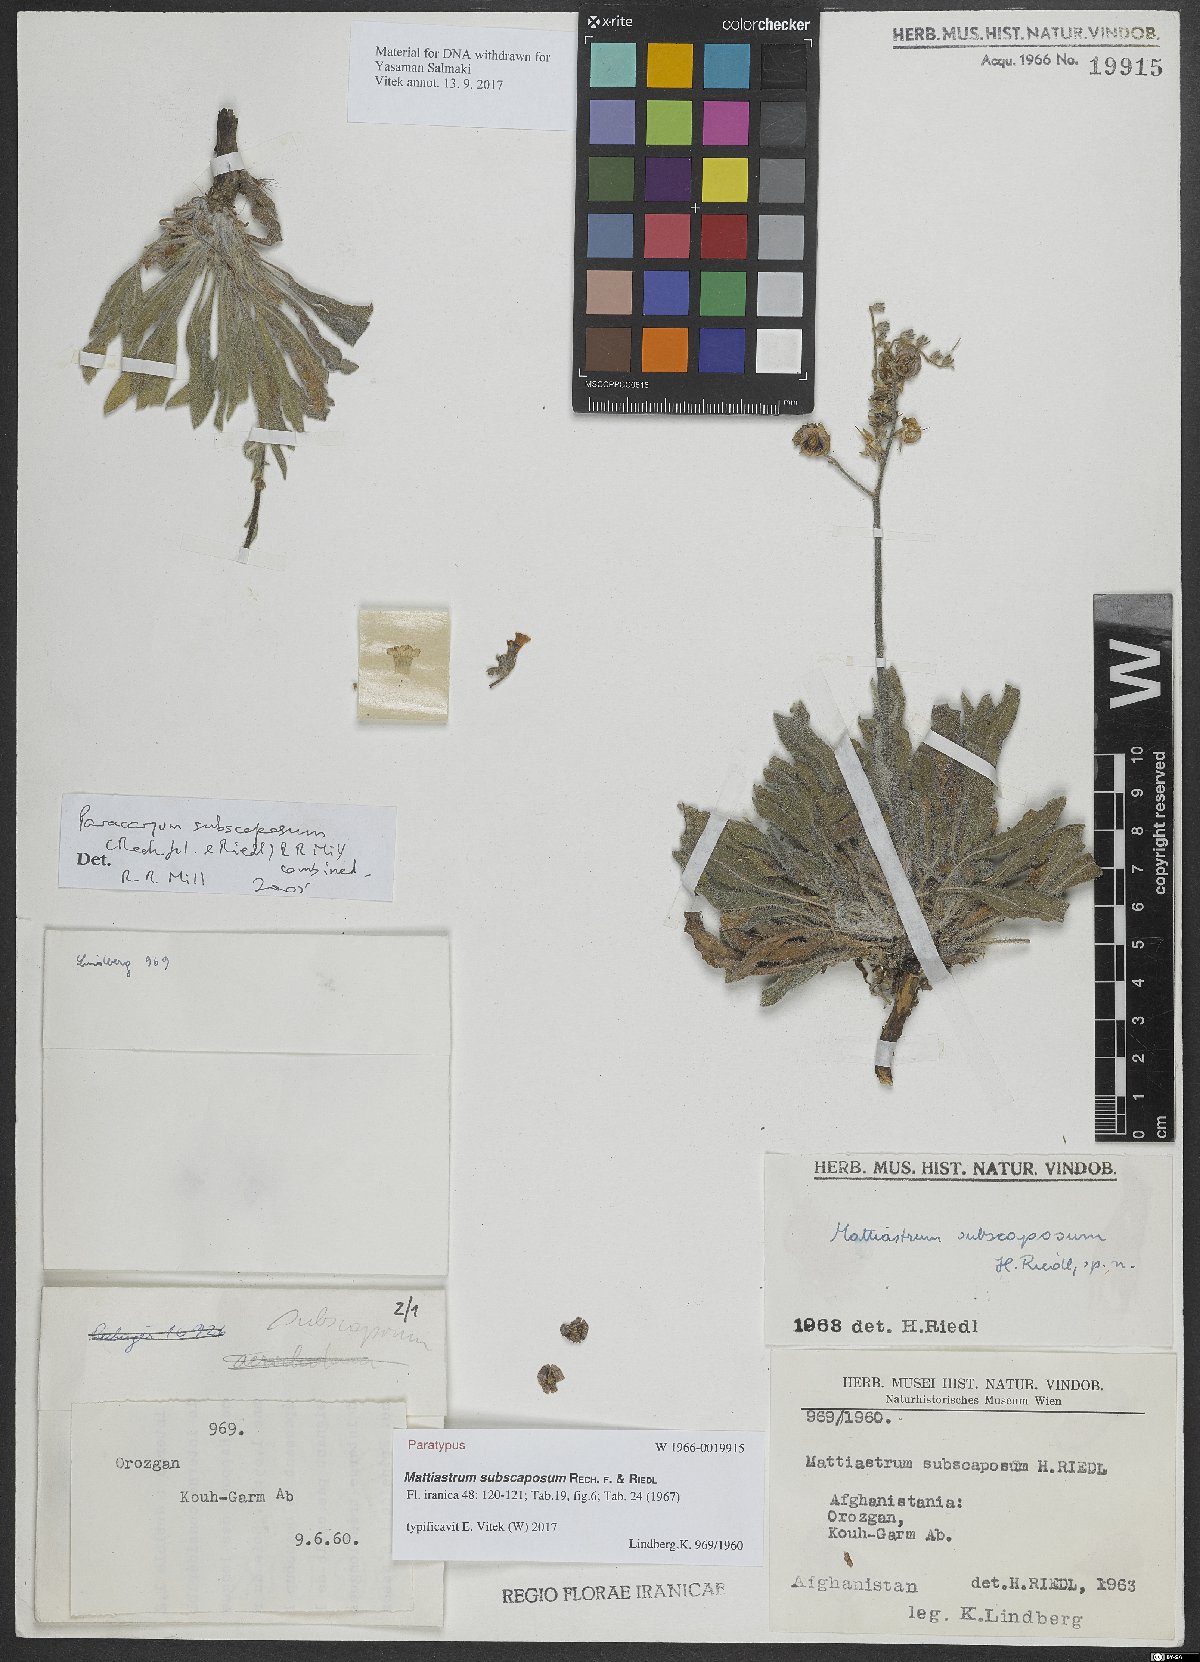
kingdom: Plantae
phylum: Tracheophyta
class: Magnoliopsida
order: Boraginales
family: Boraginaceae
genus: Paracaryum
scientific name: Paracaryum subscaposum
